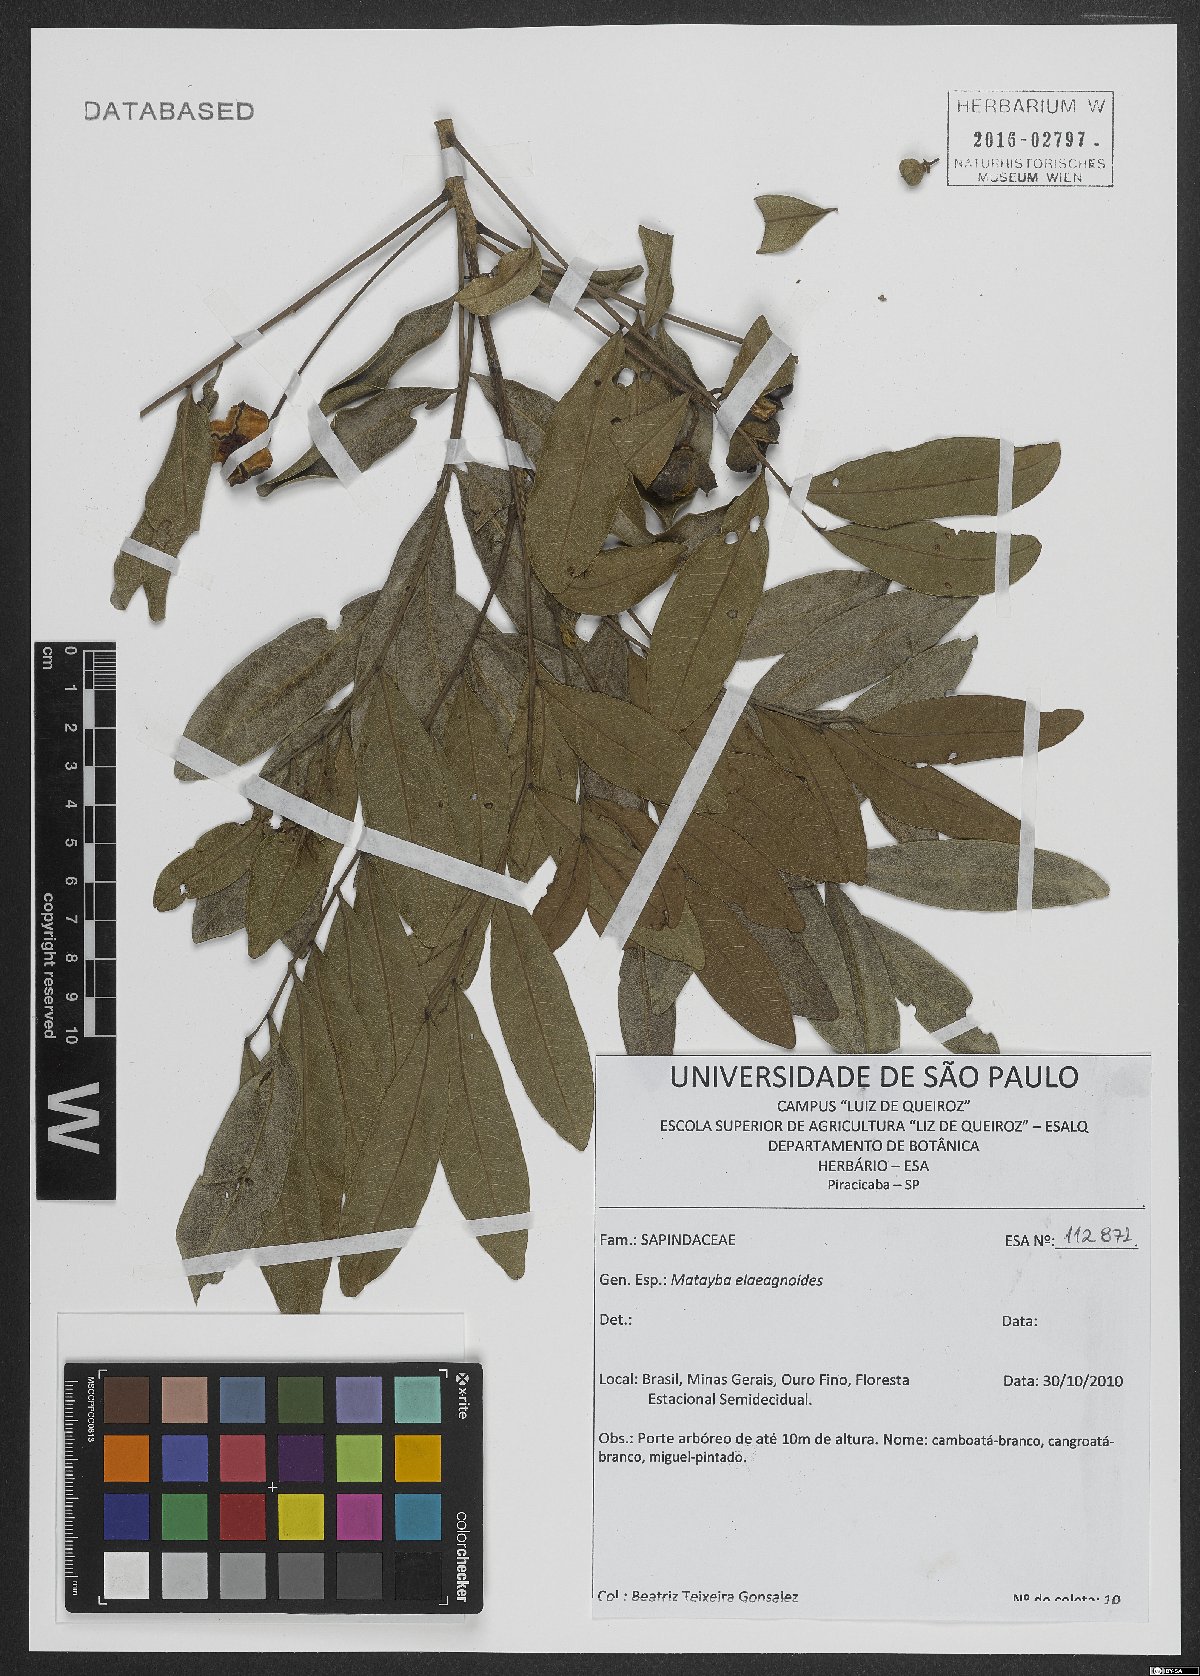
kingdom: Plantae
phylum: Tracheophyta
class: Magnoliopsida
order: Sapindales
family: Sapindaceae
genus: Matayba
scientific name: Matayba elaeagnoides
